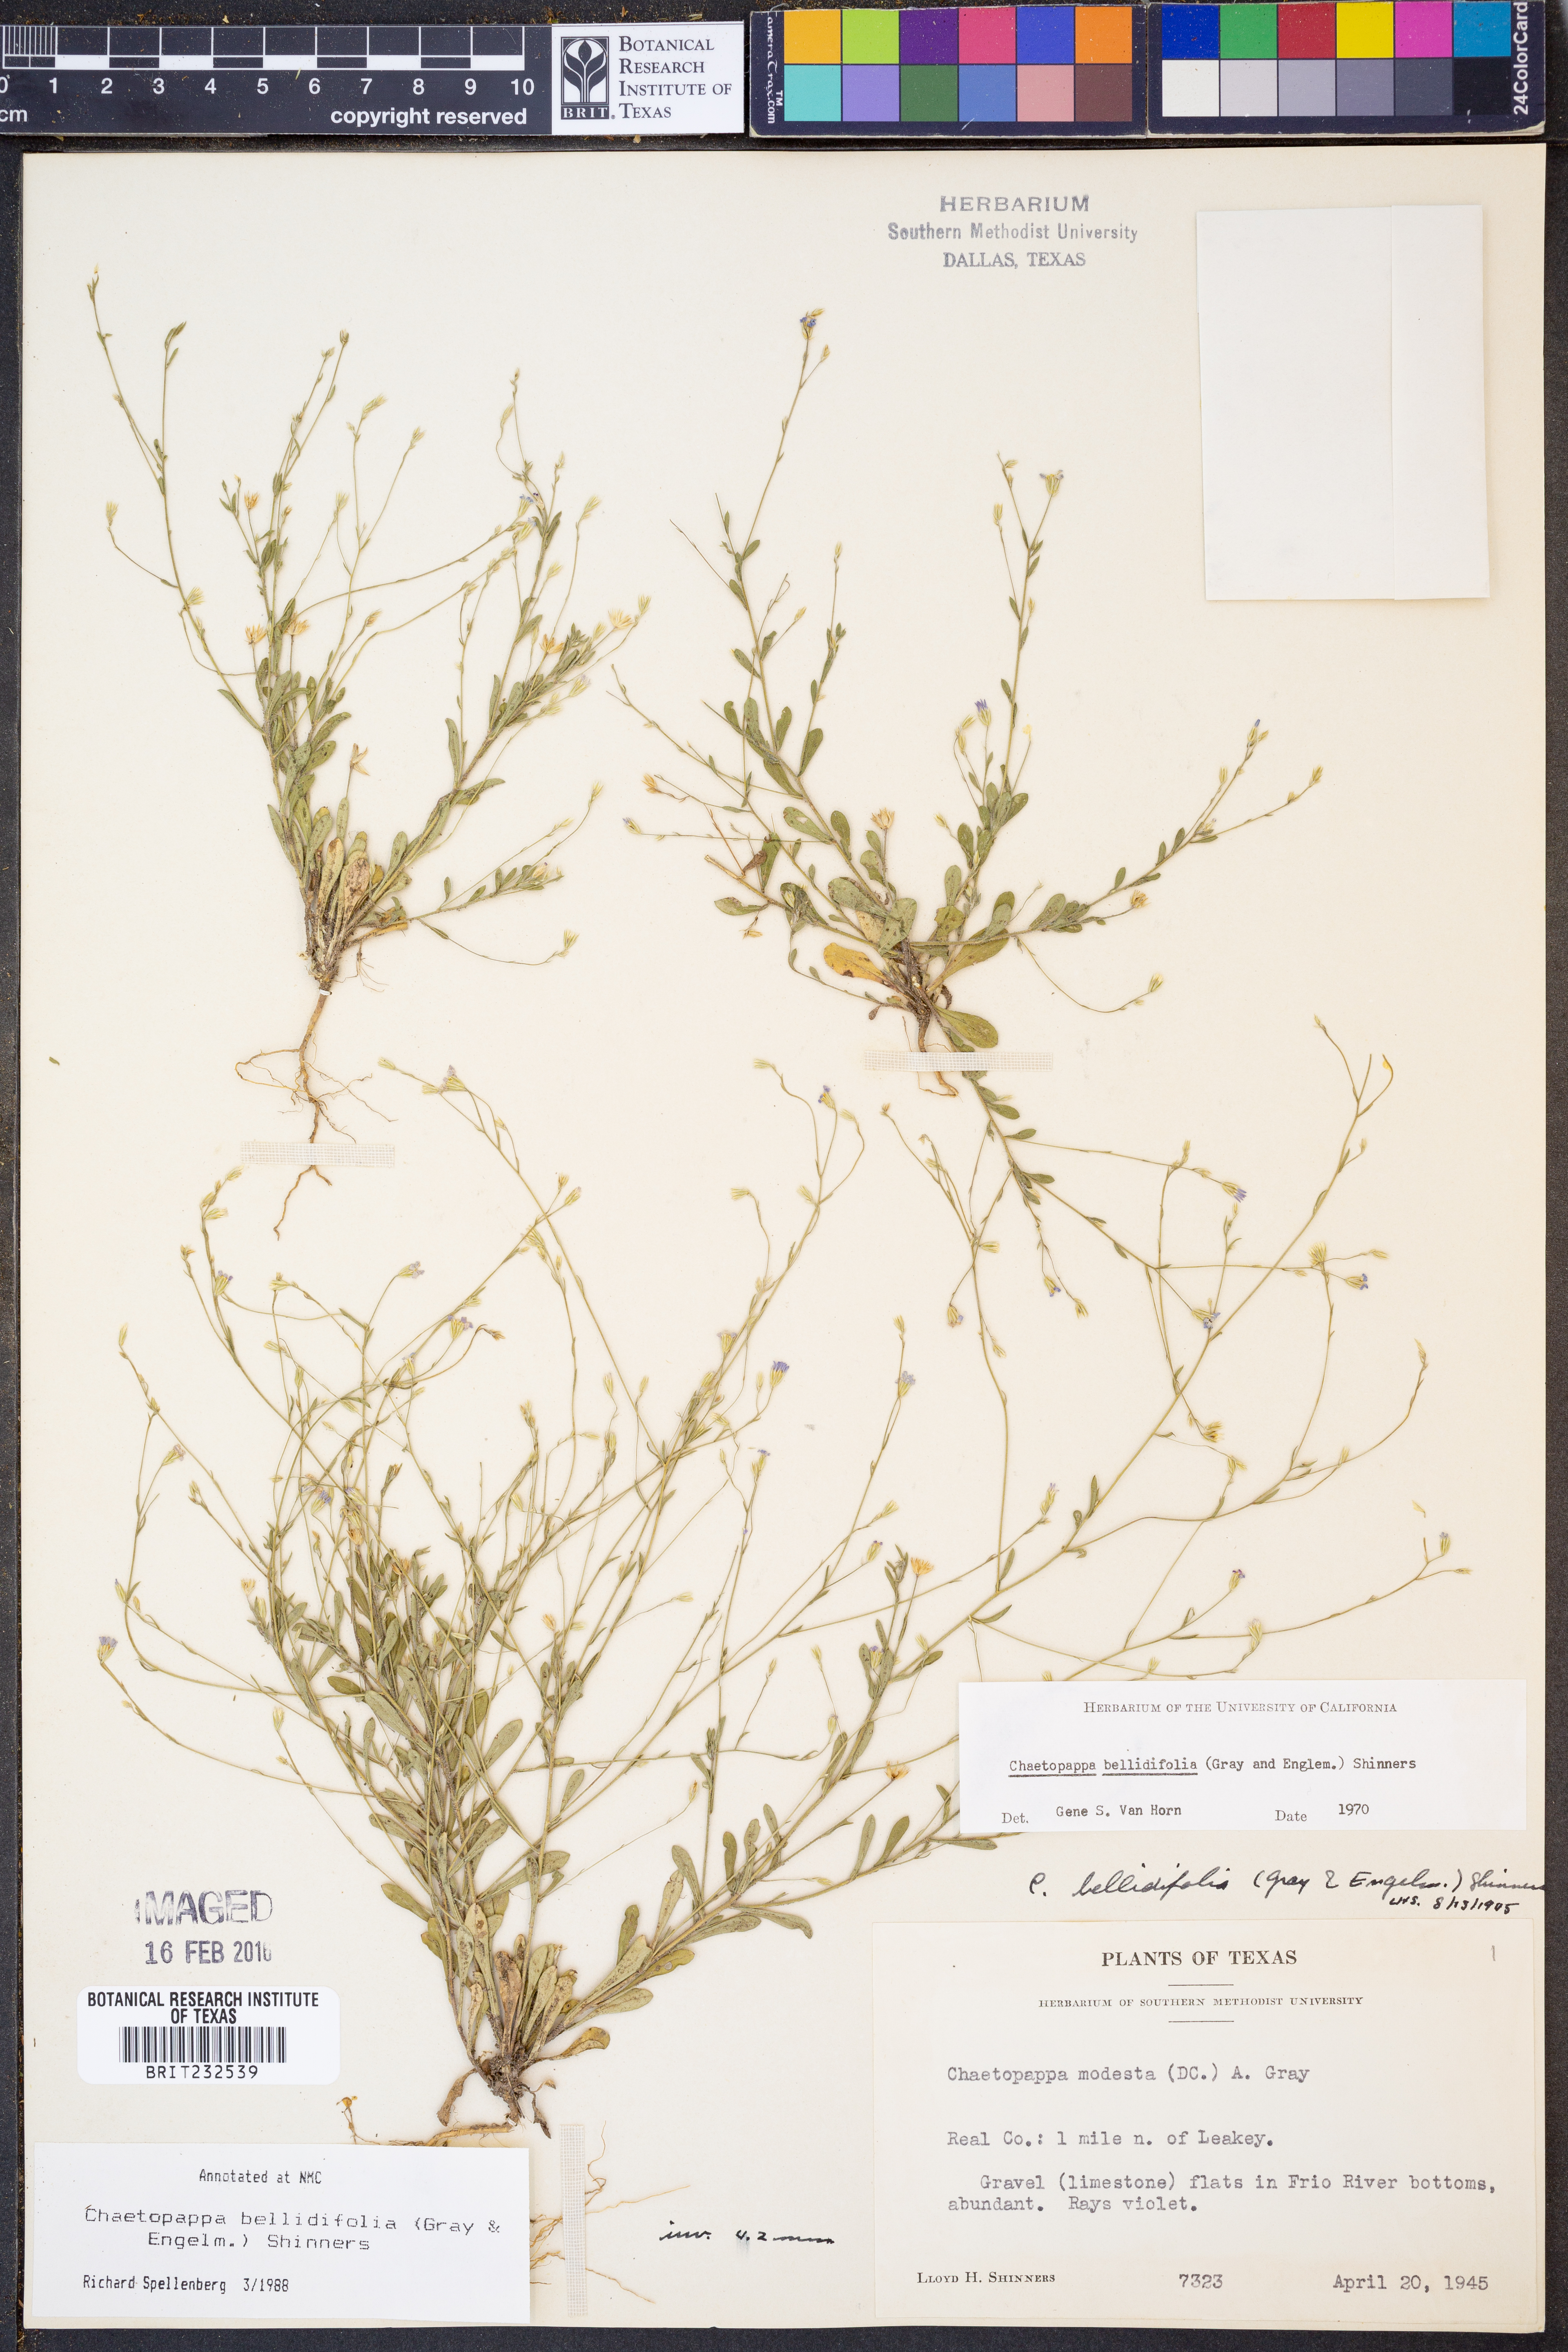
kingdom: Plantae
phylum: Tracheophyta
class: Magnoliopsida
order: Asterales
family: Asteraceae
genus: Chaetopappa
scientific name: Chaetopappa bellidifolia
